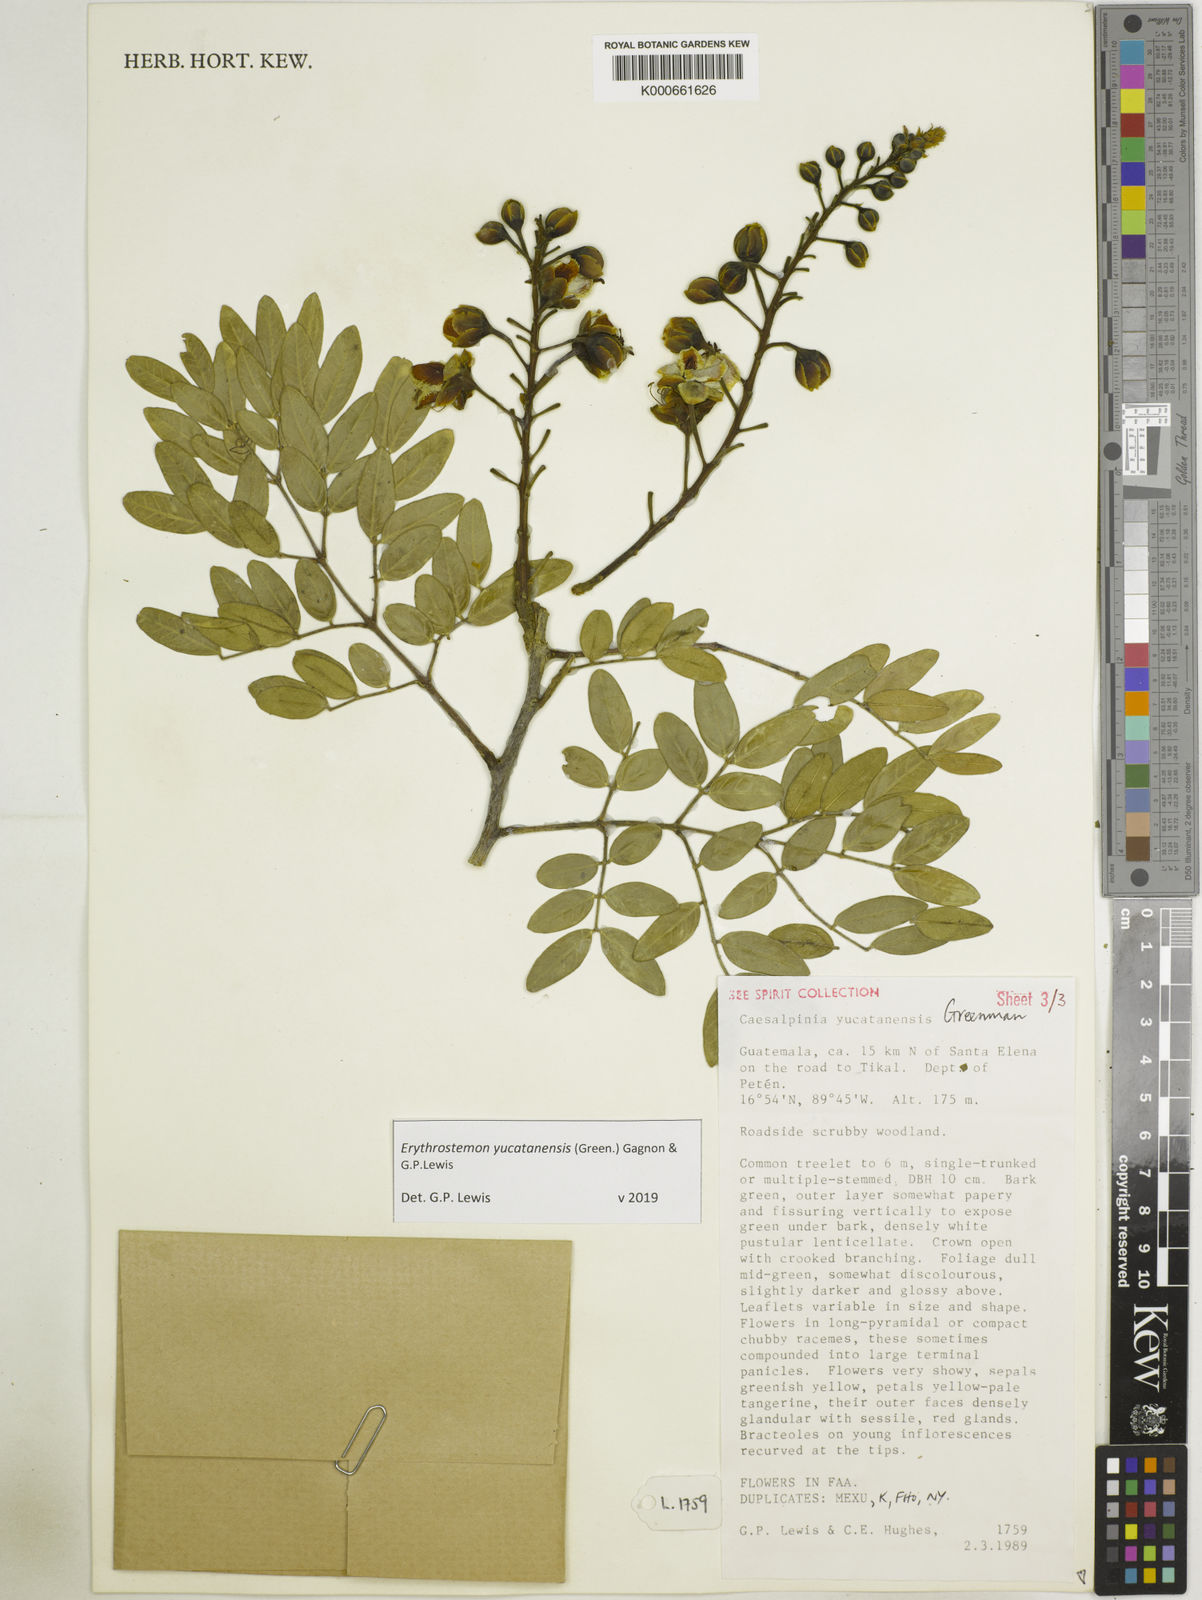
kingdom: Plantae
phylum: Tracheophyta
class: Magnoliopsida
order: Fabales
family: Fabaceae
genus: Caesalpinia
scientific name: Caesalpinia
